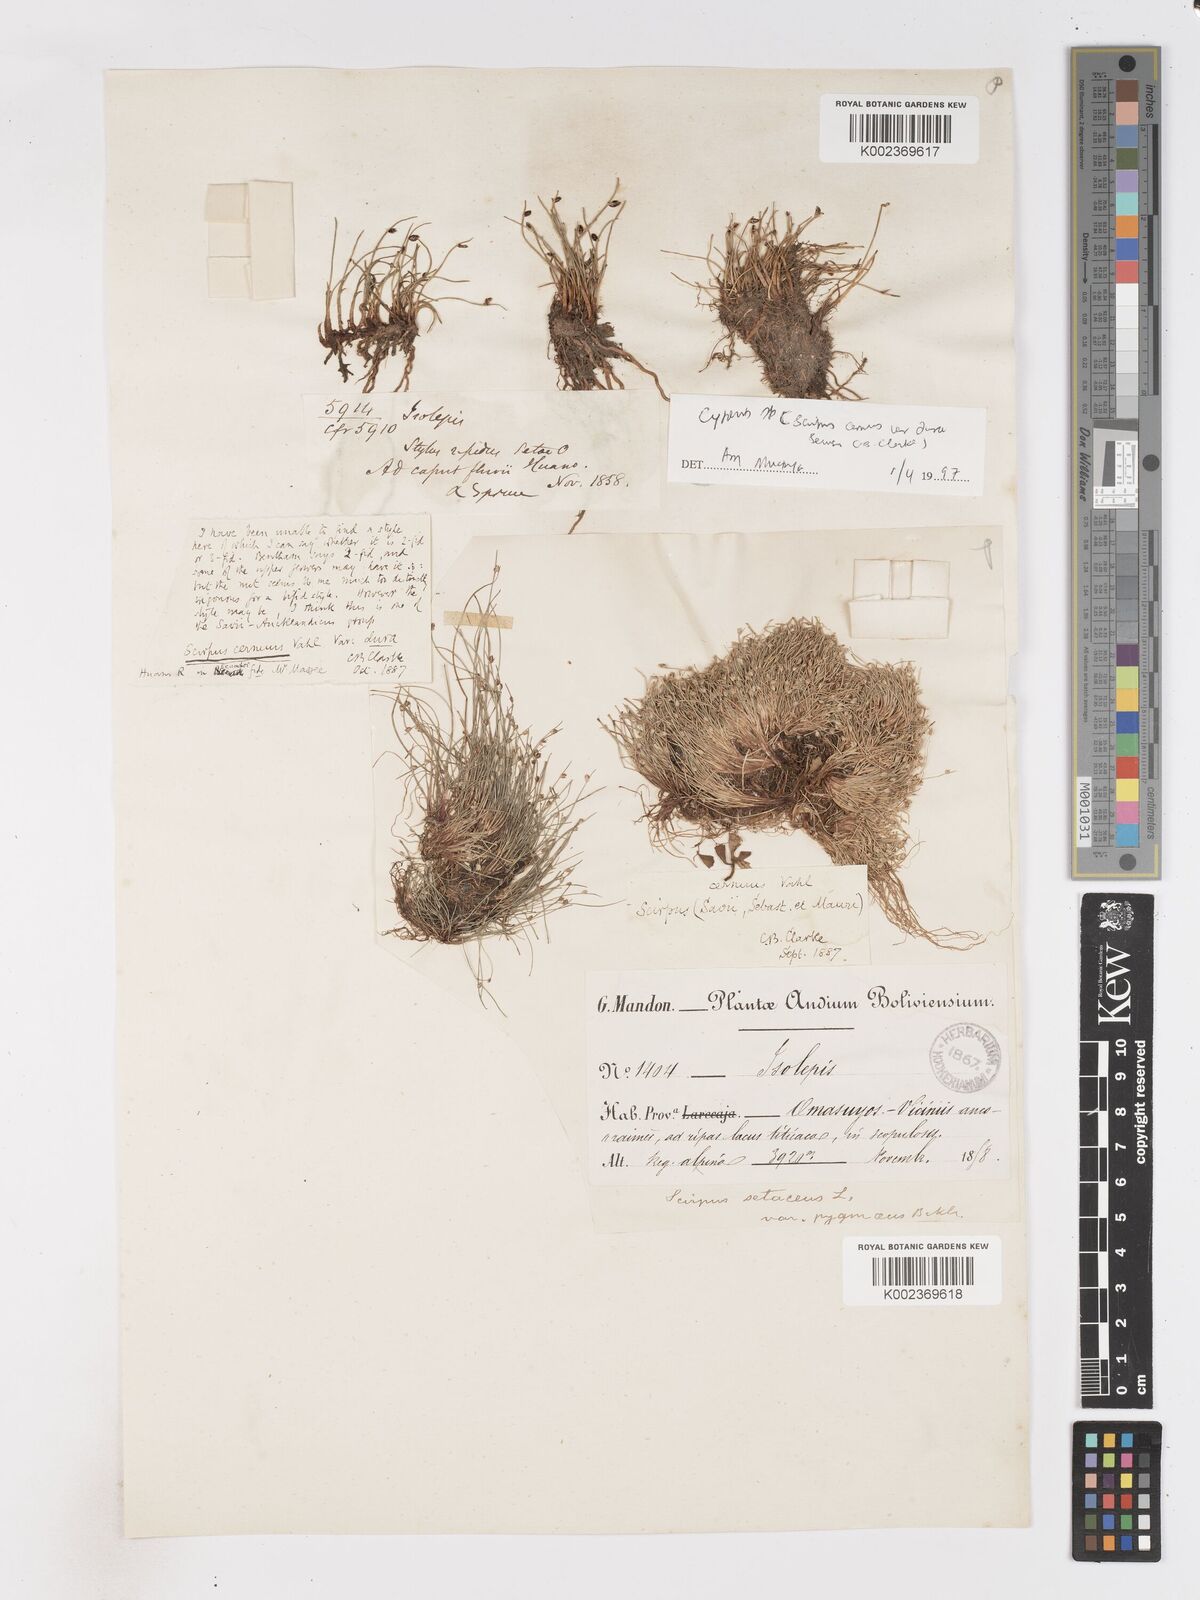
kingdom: Plantae
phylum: Tracheophyta
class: Liliopsida
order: Poales
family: Cyperaceae
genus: Isolepis
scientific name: Isolepis cernua
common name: Slender club-rush
